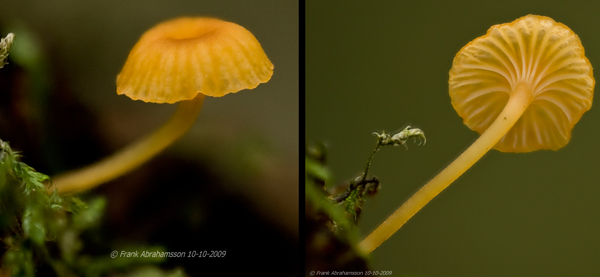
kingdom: Fungi
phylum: Basidiomycota
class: Agaricomycetes
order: Hymenochaetales
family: Rickenellaceae
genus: Rickenella
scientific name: Rickenella fibula
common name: orange mosnavlehat
